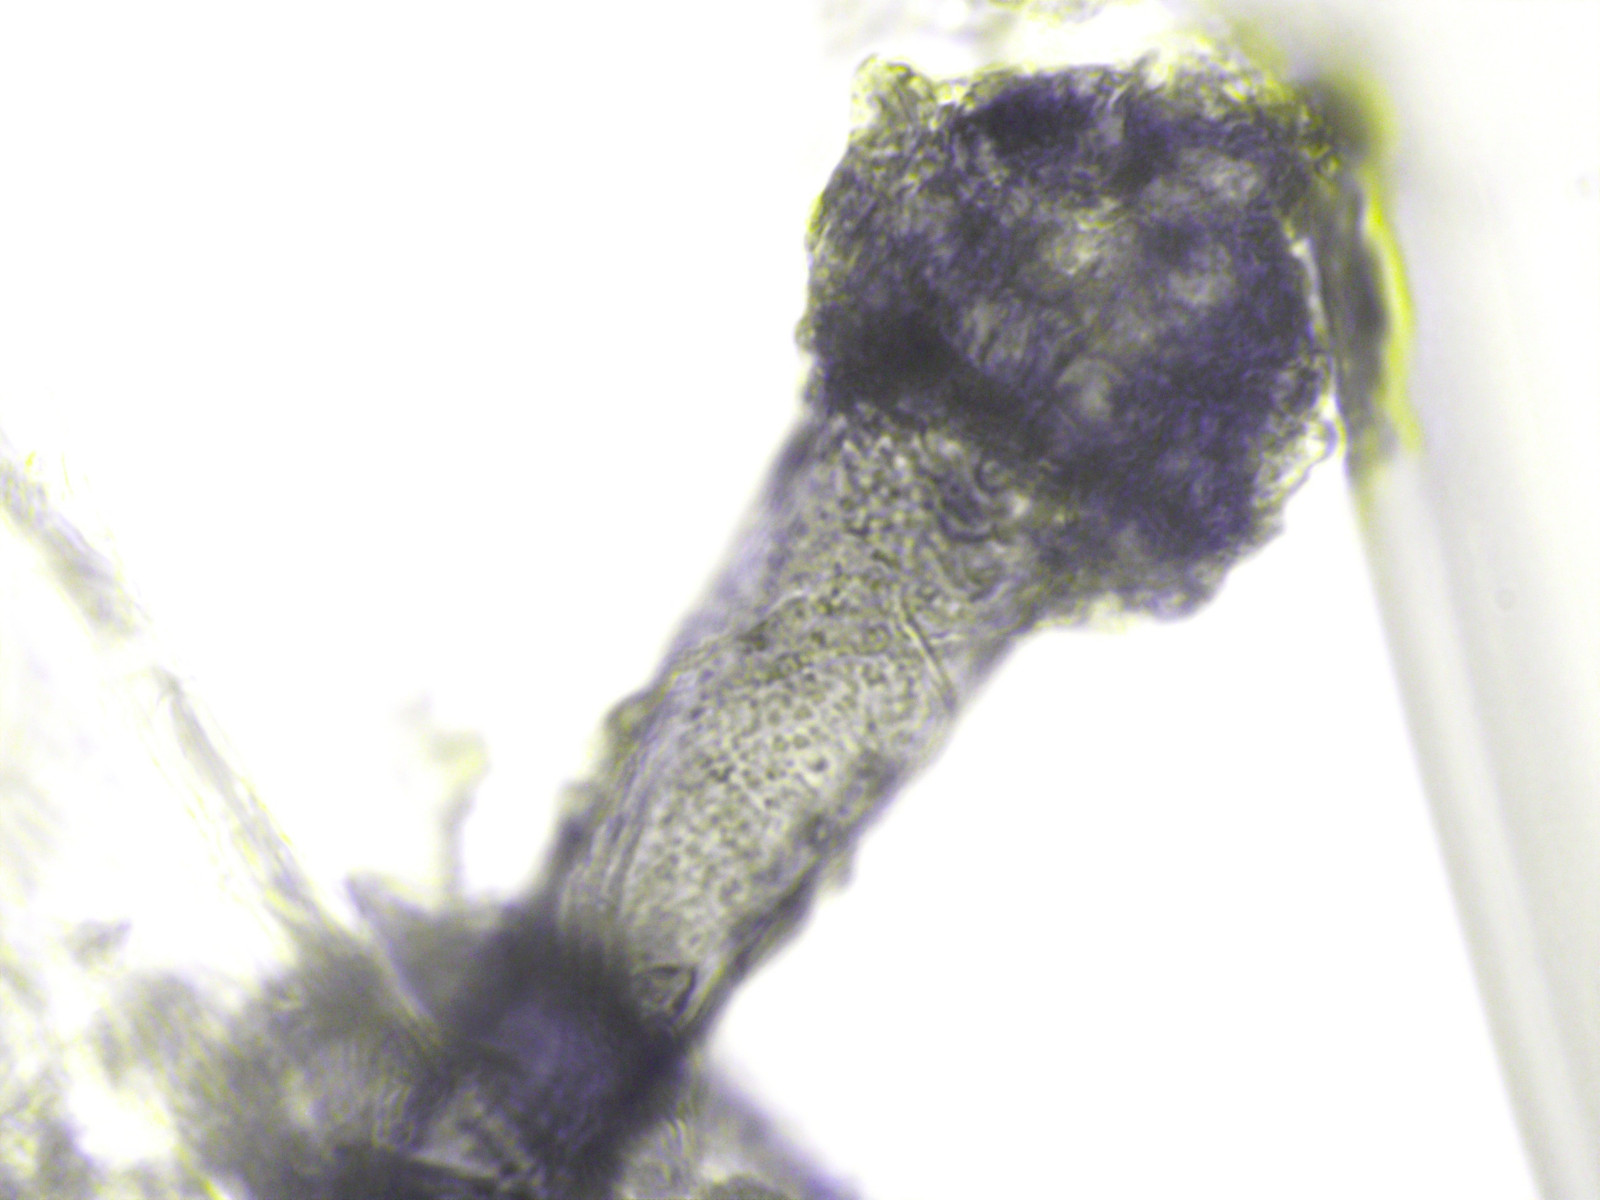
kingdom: Fungi
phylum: Ascomycota
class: Dothideomycetes
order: Pleosporales
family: Periconiaceae
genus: Periconia
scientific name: Periconia cookei
